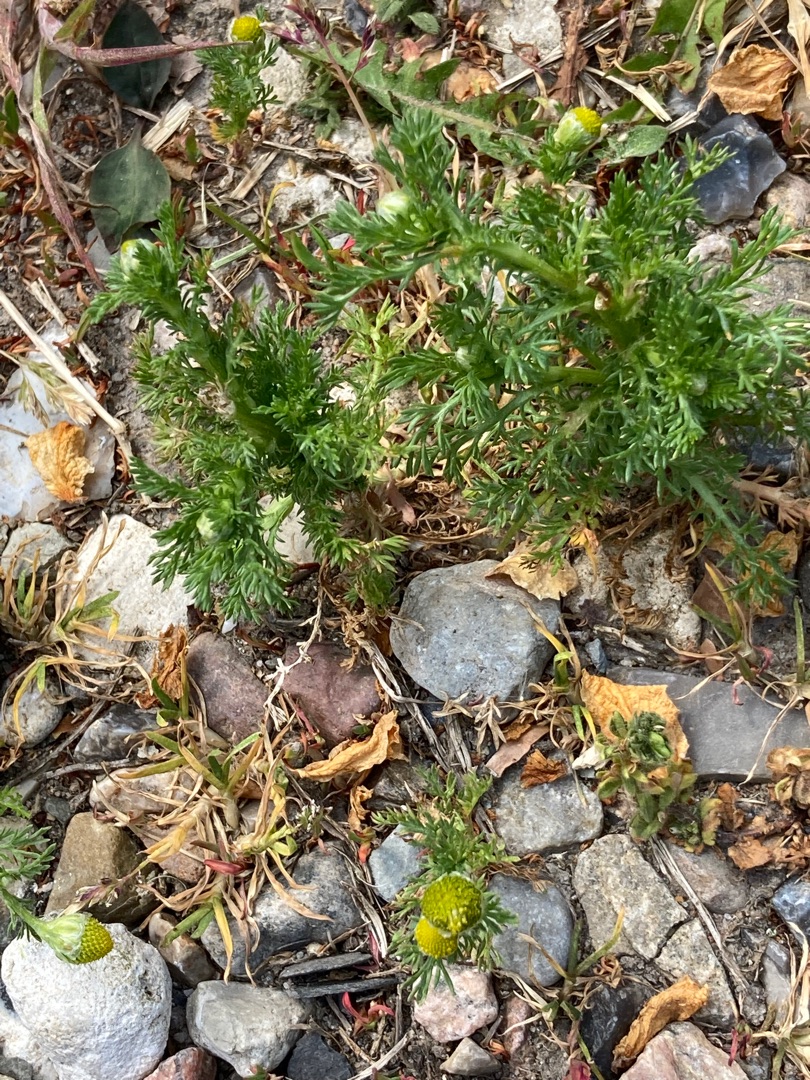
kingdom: Plantae
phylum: Tracheophyta
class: Magnoliopsida
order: Asterales
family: Asteraceae
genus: Tripleurospermum
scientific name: Tripleurospermum inodorum
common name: Lugtløs kamille
